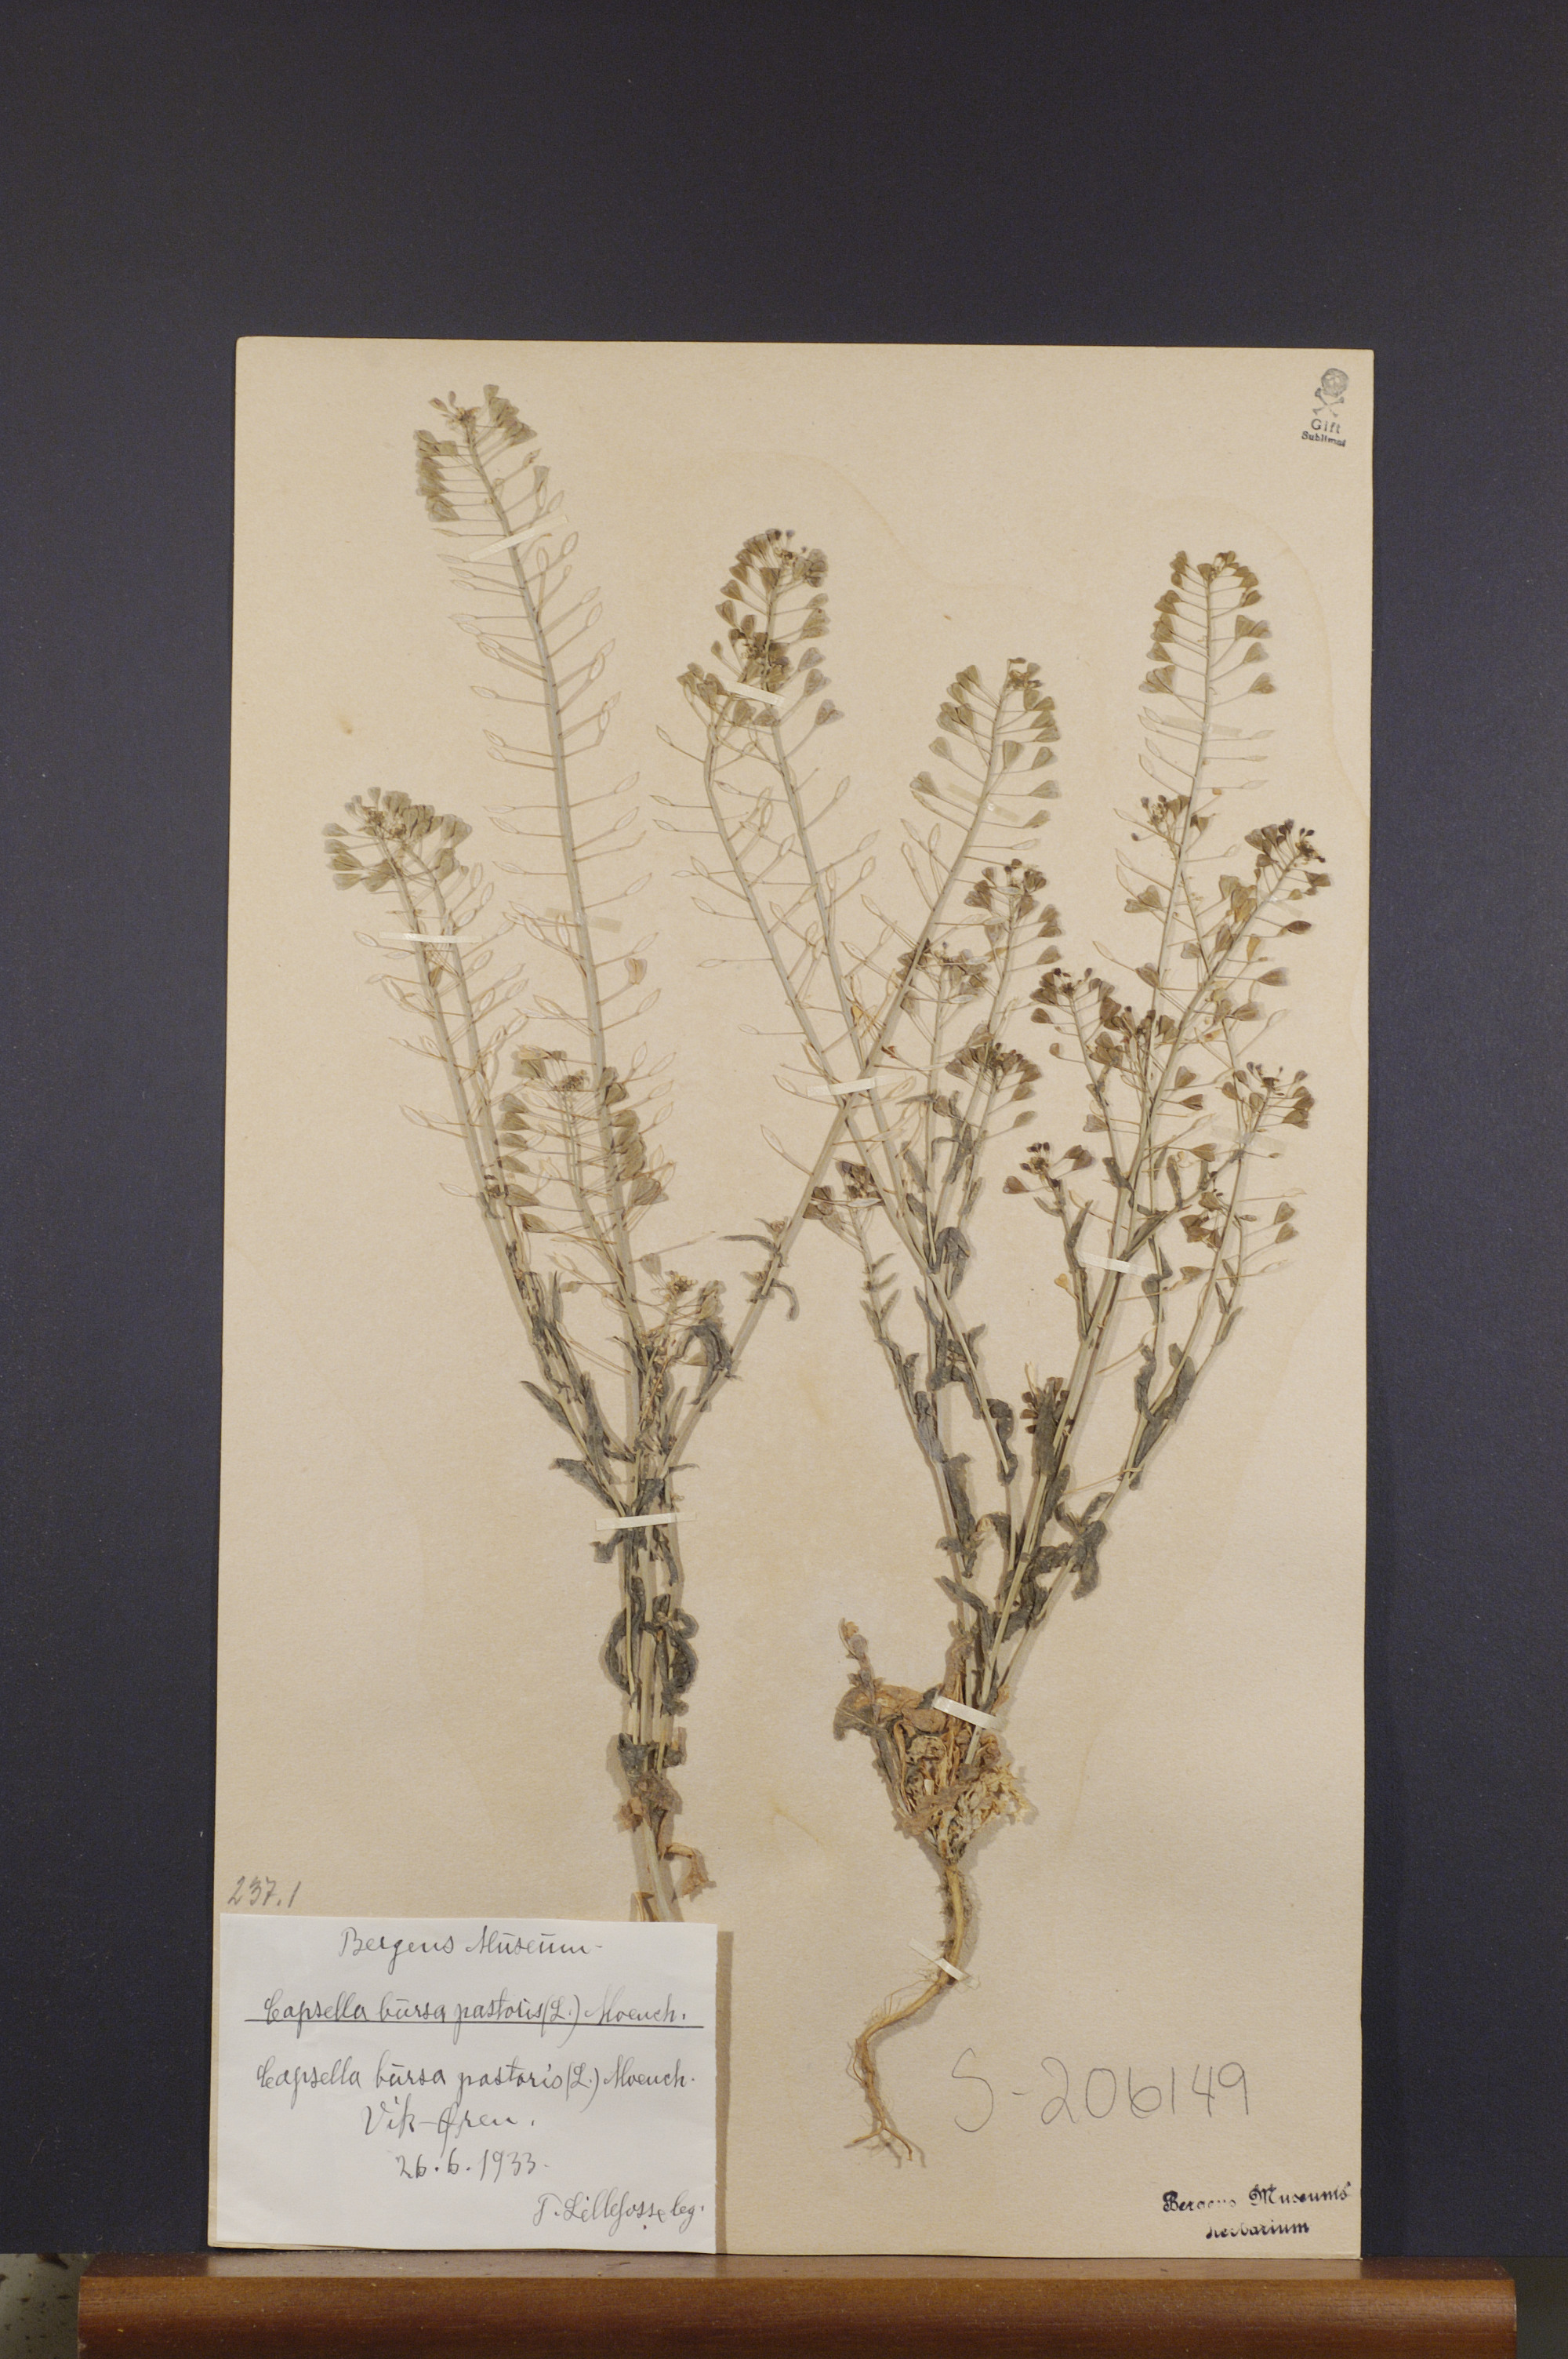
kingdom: Plantae
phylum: Tracheophyta
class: Magnoliopsida
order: Brassicales
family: Brassicaceae
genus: Capsella
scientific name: Capsella bursa-pastoris
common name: Shepherd's purse
